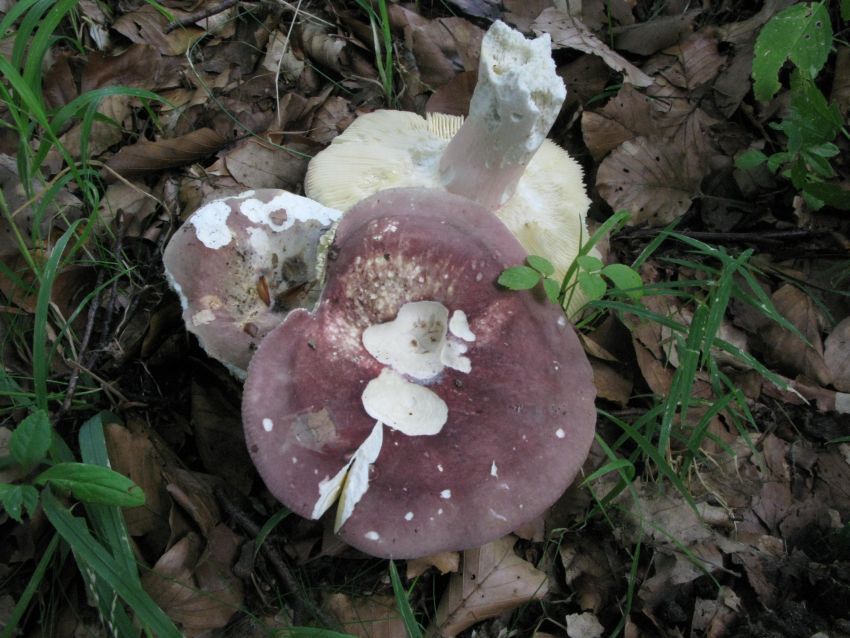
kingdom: Fungi
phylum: Basidiomycota
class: Agaricomycetes
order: Russulales
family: Russulaceae
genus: Russula
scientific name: Russula olivacea
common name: stor skørhat
